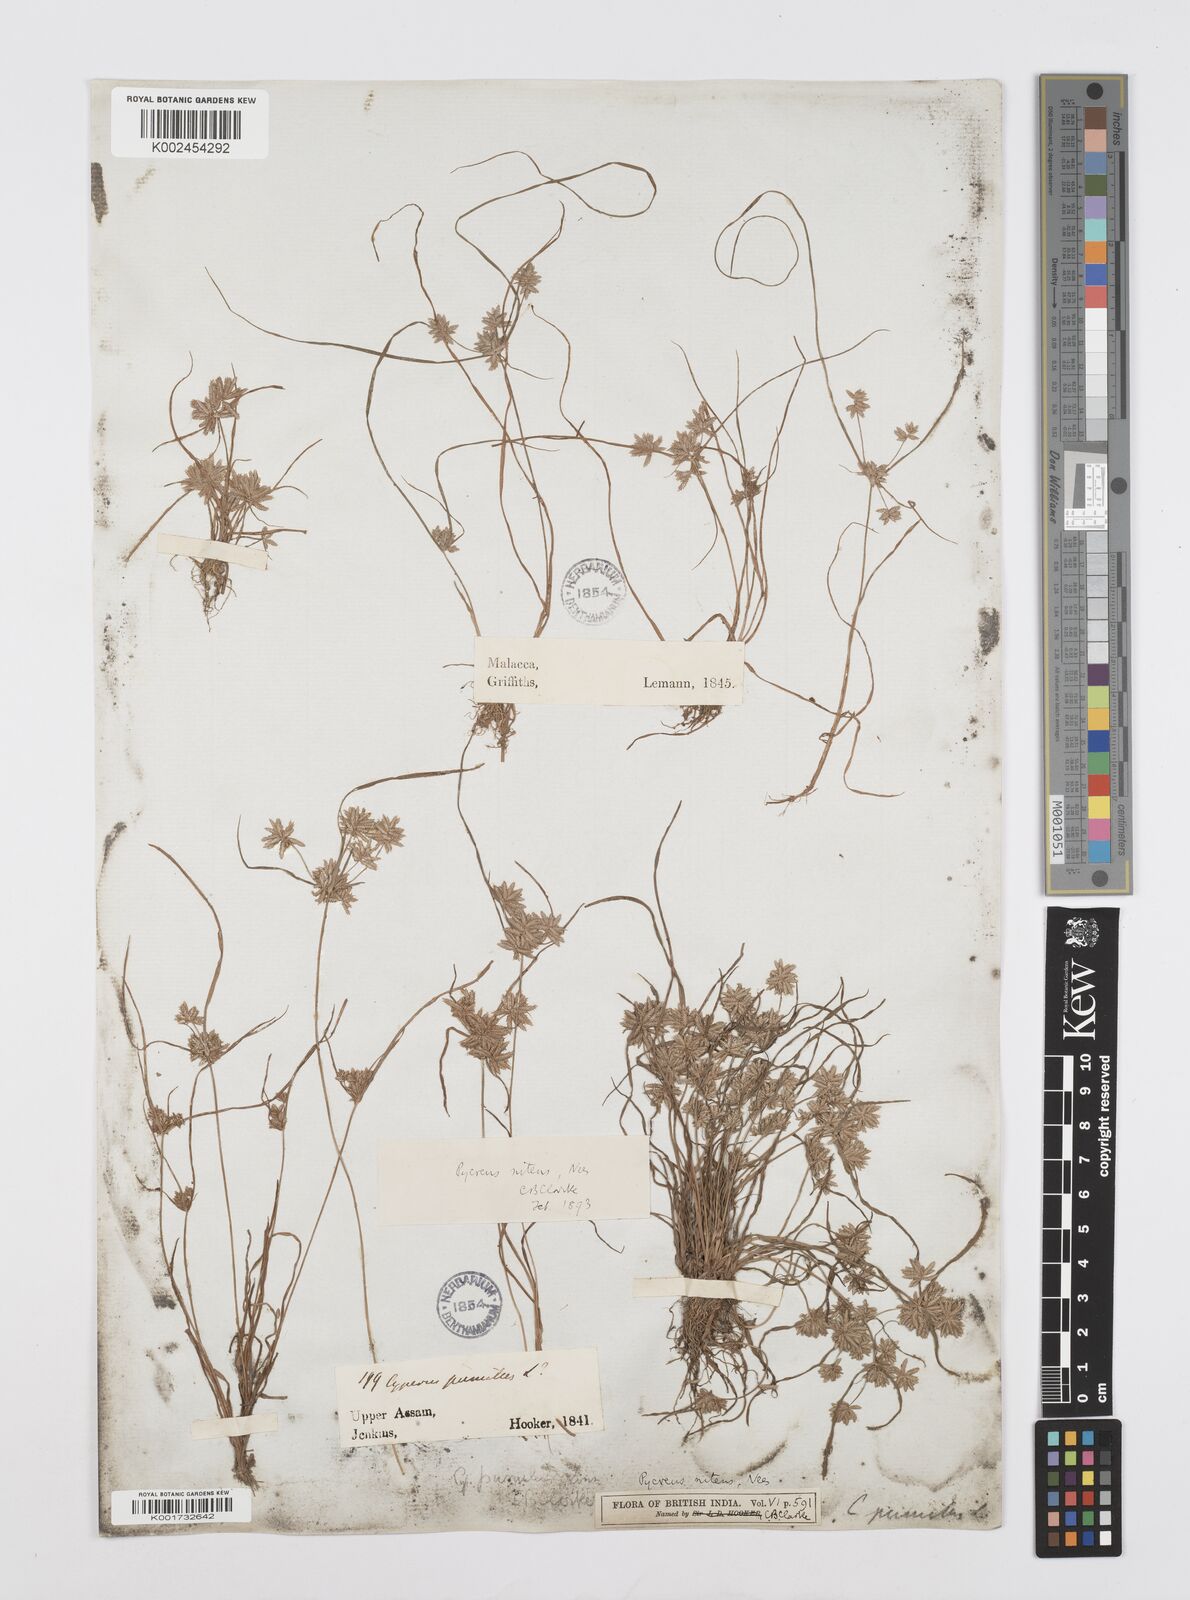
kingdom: Plantae
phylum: Tracheophyta
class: Liliopsida
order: Poales
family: Cyperaceae
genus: Cyperus
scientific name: Cyperus pumilus
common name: Low flatsedge
